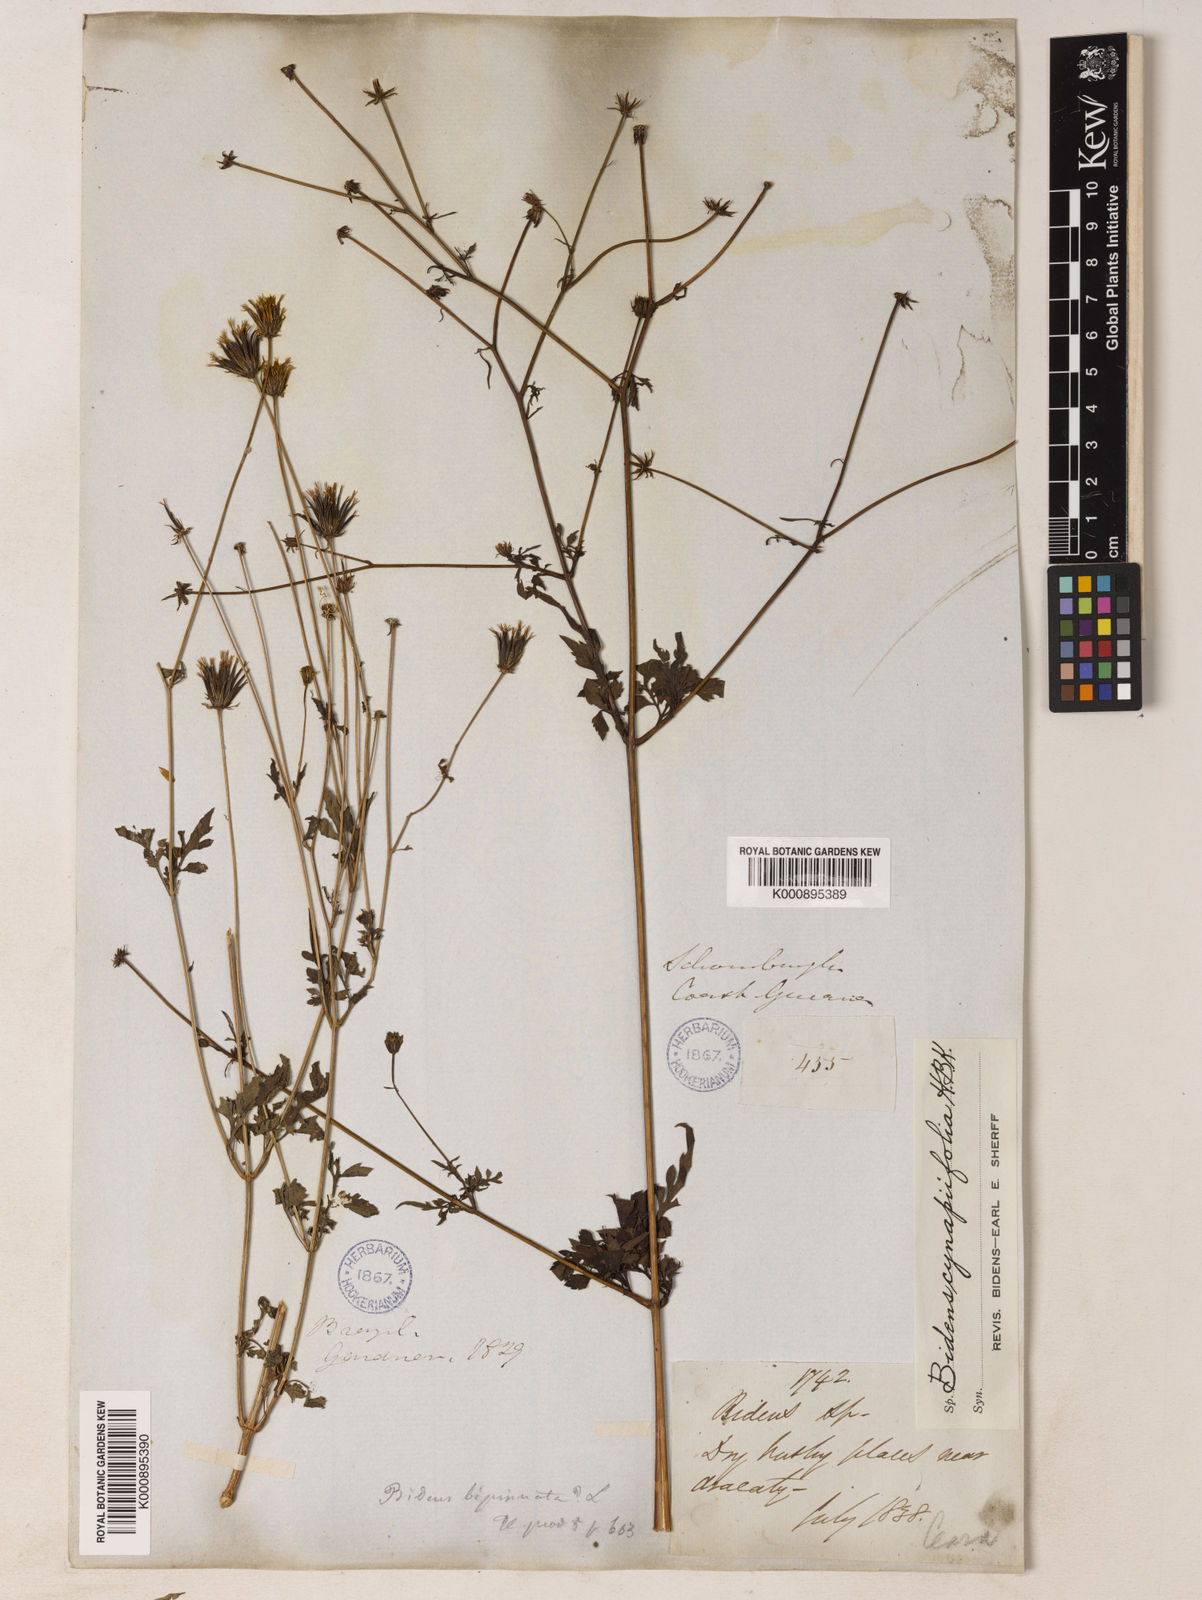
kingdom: Plantae
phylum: Tracheophyta
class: Magnoliopsida
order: Asterales
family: Asteraceae
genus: Bidens
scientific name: Bidens cynapiifolia
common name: Beggar's tick
